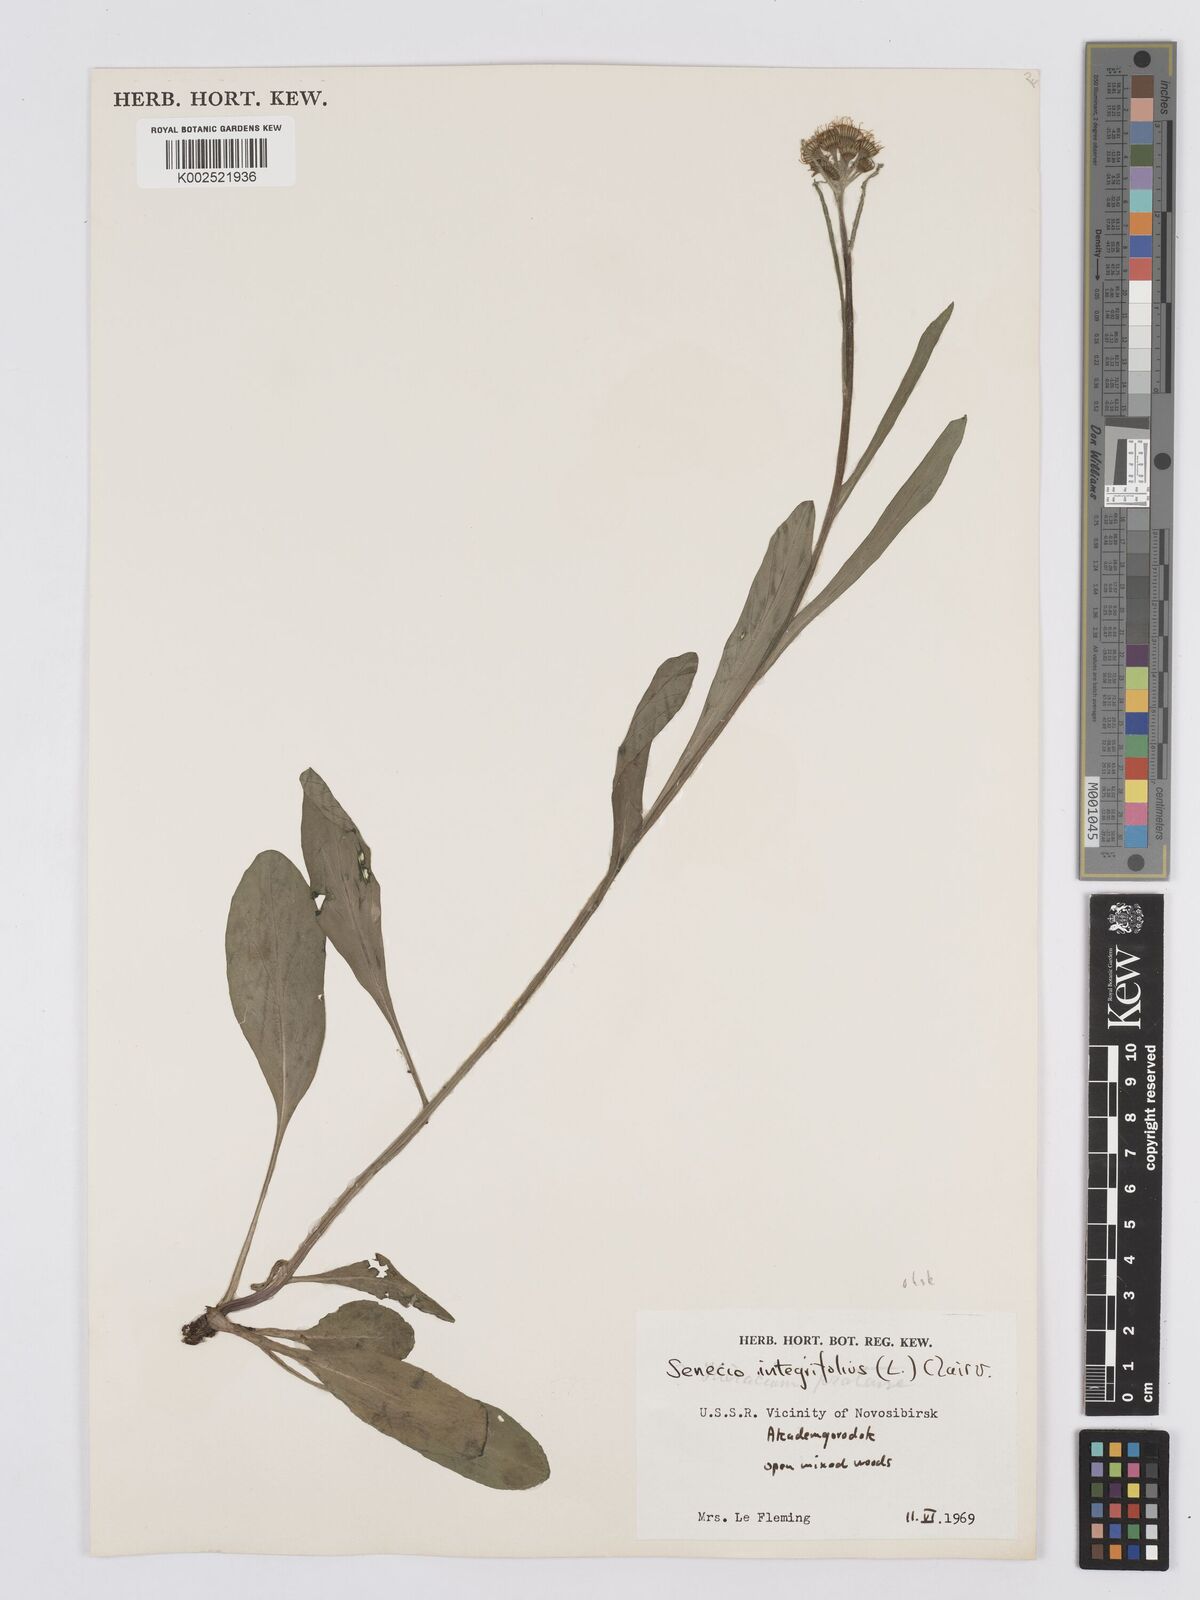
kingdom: Plantae
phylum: Tracheophyta
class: Magnoliopsida
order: Asterales
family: Asteraceae
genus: Tephroseris
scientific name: Tephroseris integrifolia
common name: Field fleawort
